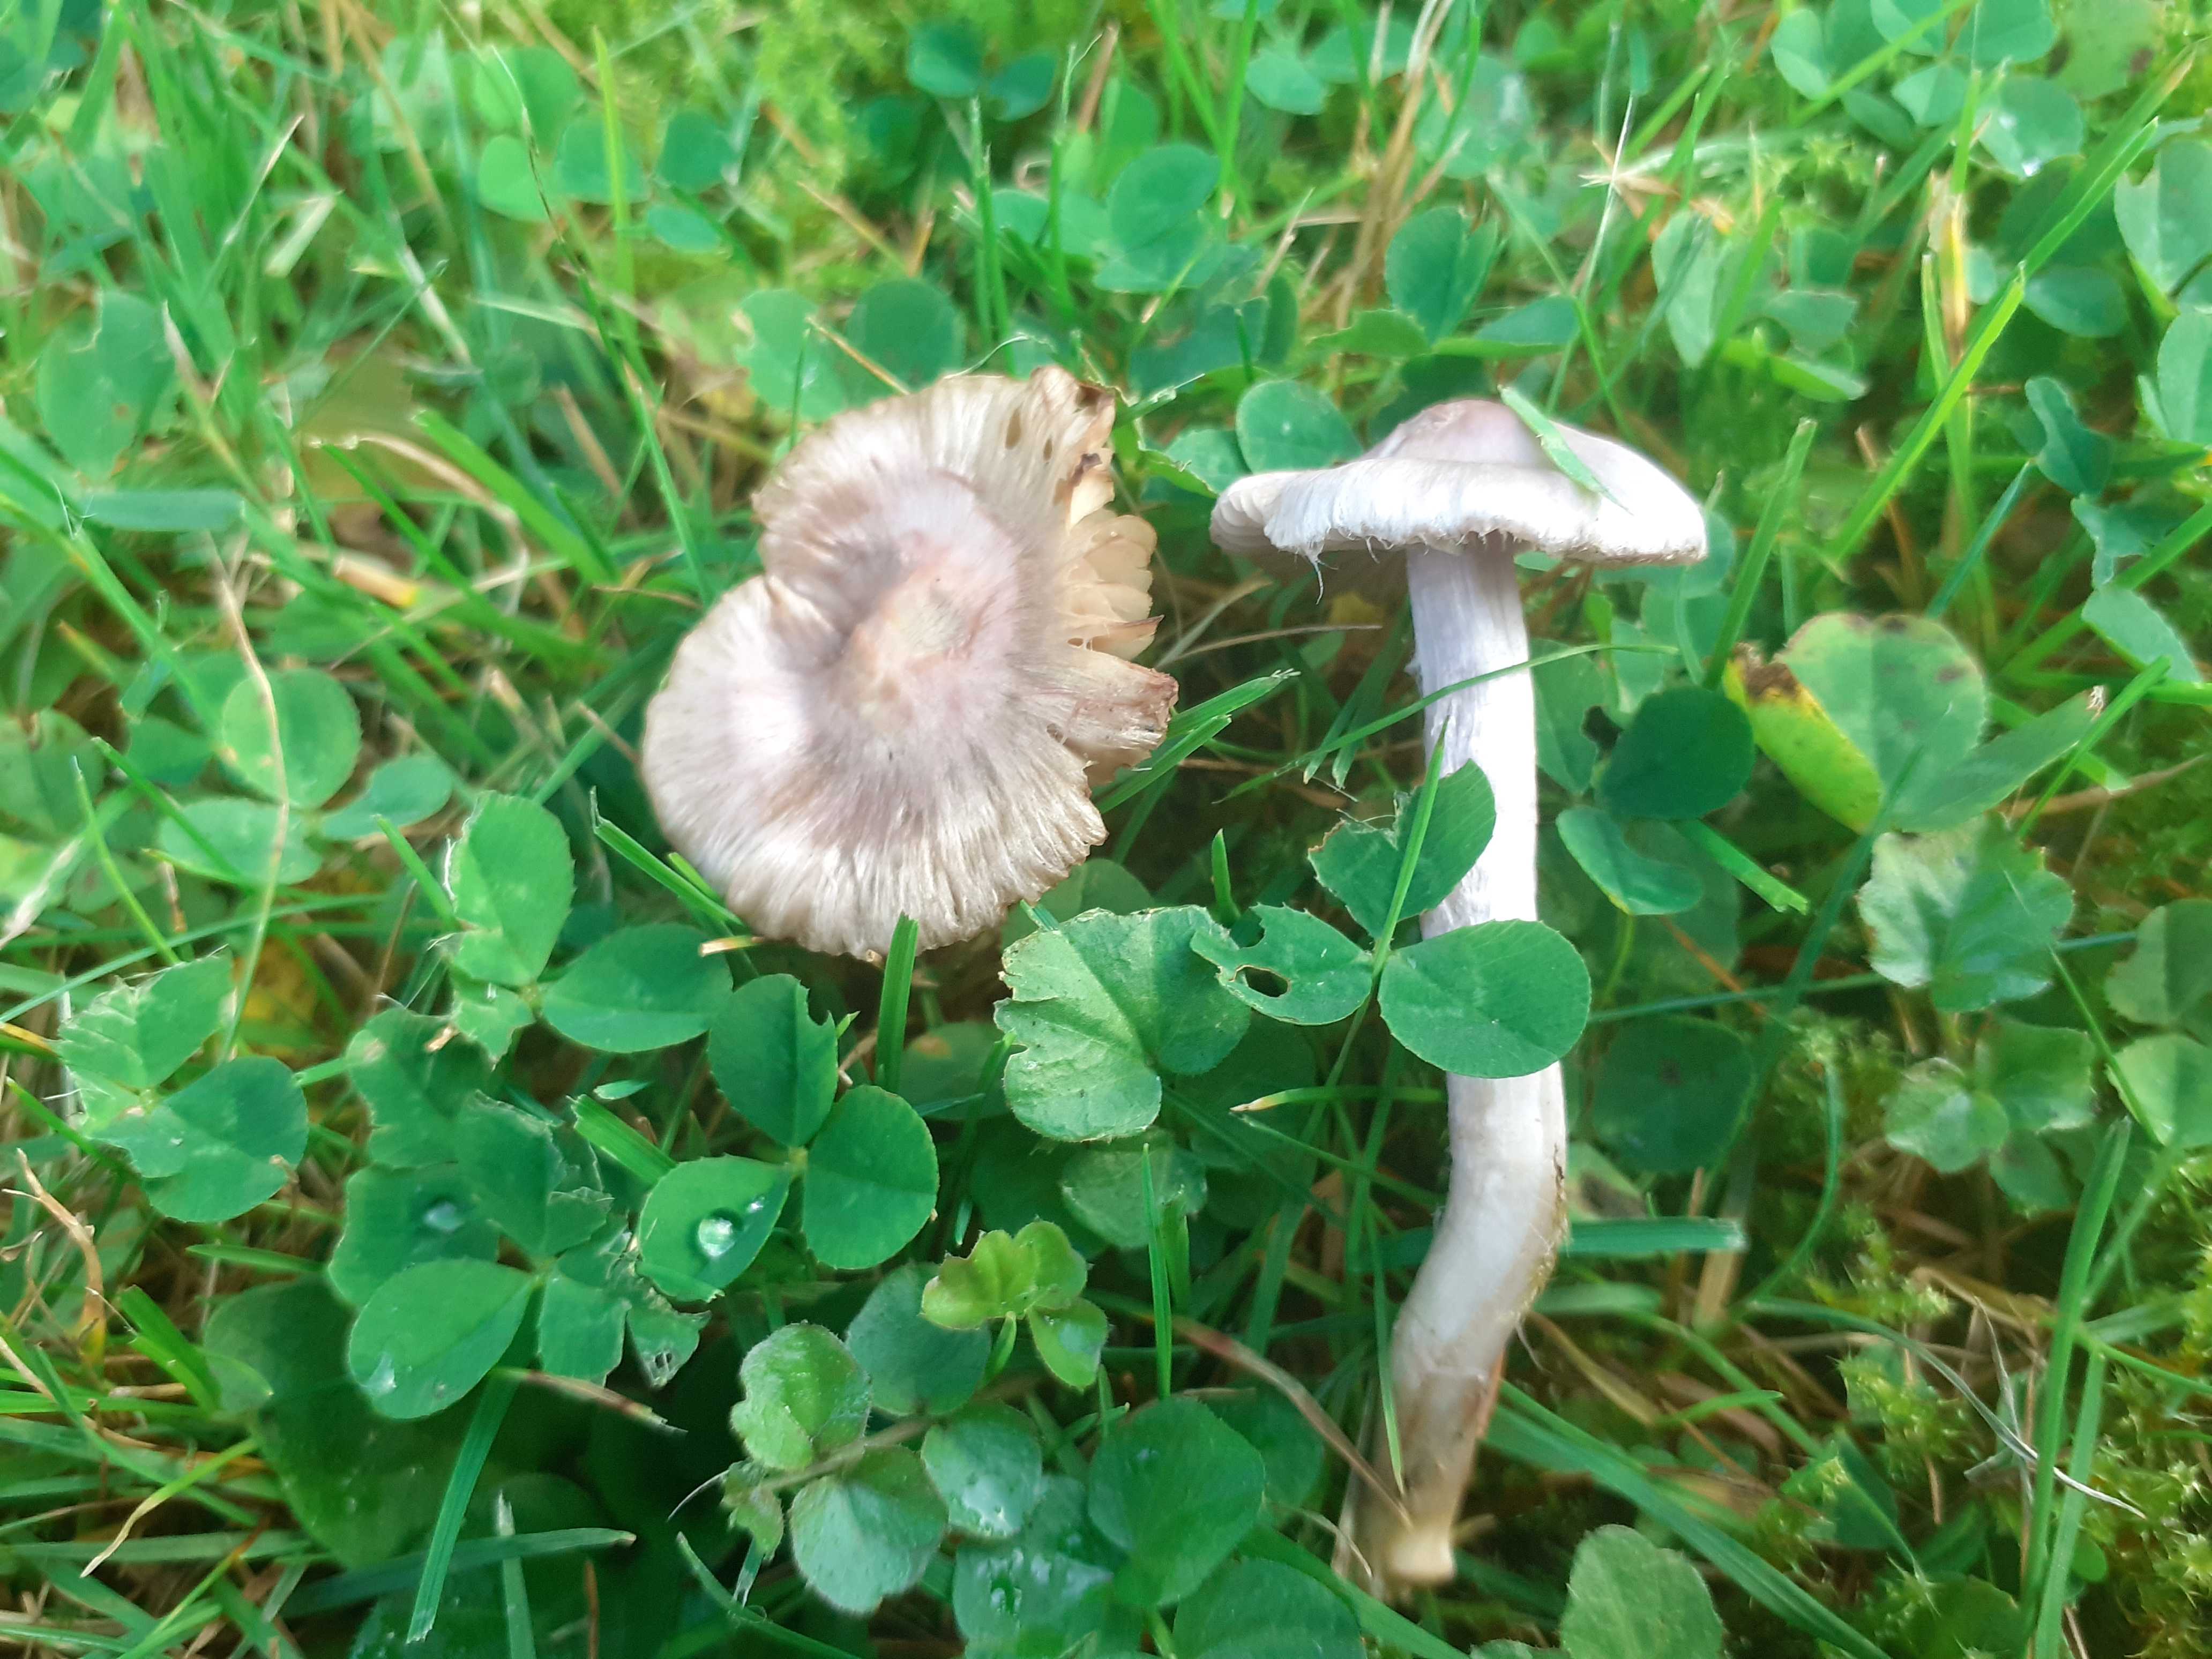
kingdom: Fungi
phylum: Basidiomycota
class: Agaricomycetes
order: Agaricales
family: Inocybaceae
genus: Inocybe
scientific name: Inocybe geophylla
